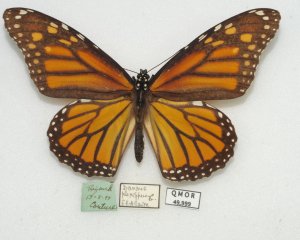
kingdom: Animalia
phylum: Arthropoda
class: Insecta
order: Lepidoptera
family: Nymphalidae
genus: Danaus
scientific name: Danaus plexippus
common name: Monarch
